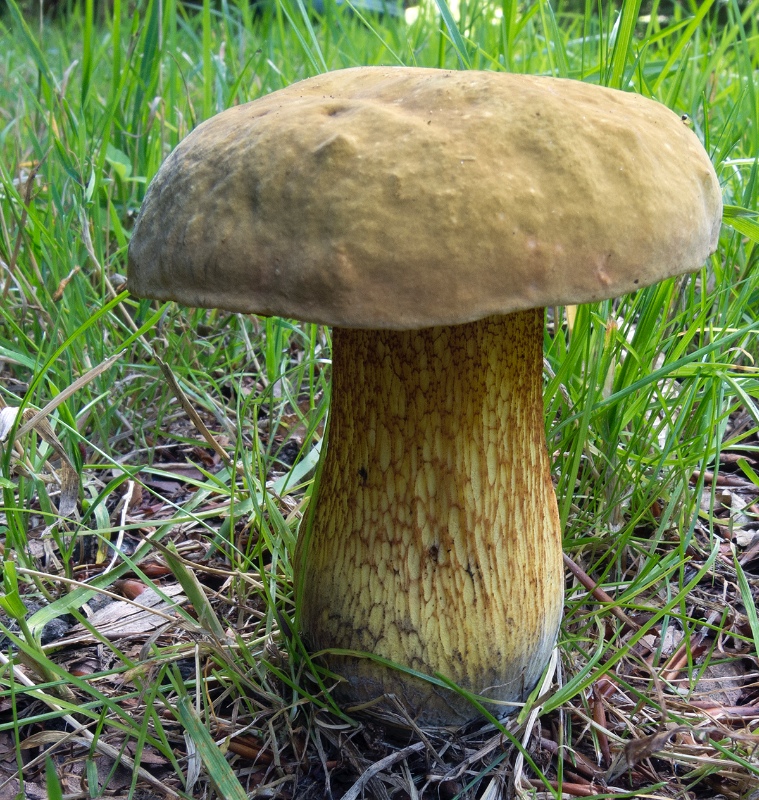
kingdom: Fungi
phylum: Basidiomycota
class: Agaricomycetes
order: Boletales
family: Boletaceae
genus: Suillellus
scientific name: Suillellus luridus
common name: netstokket indigorørhat
